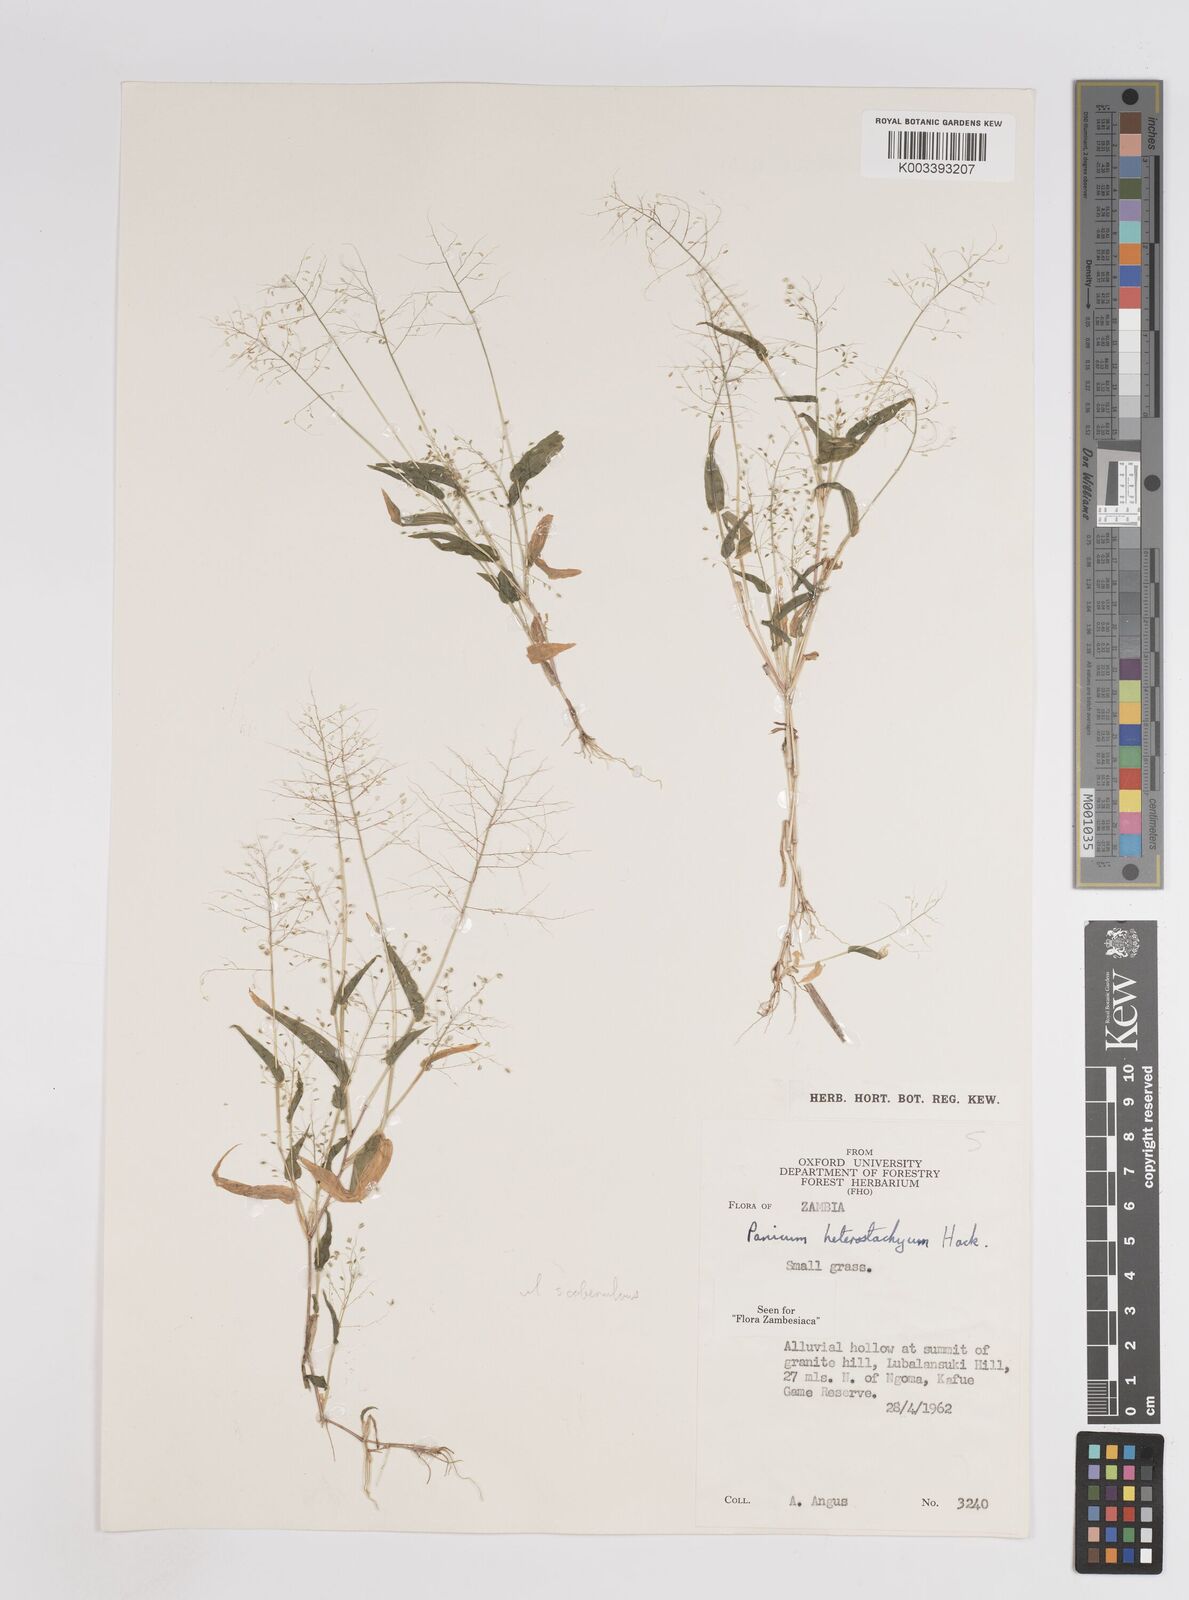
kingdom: Plantae
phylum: Tracheophyta
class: Liliopsida
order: Poales
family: Poaceae
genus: Panicum
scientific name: Panicum hirtum
